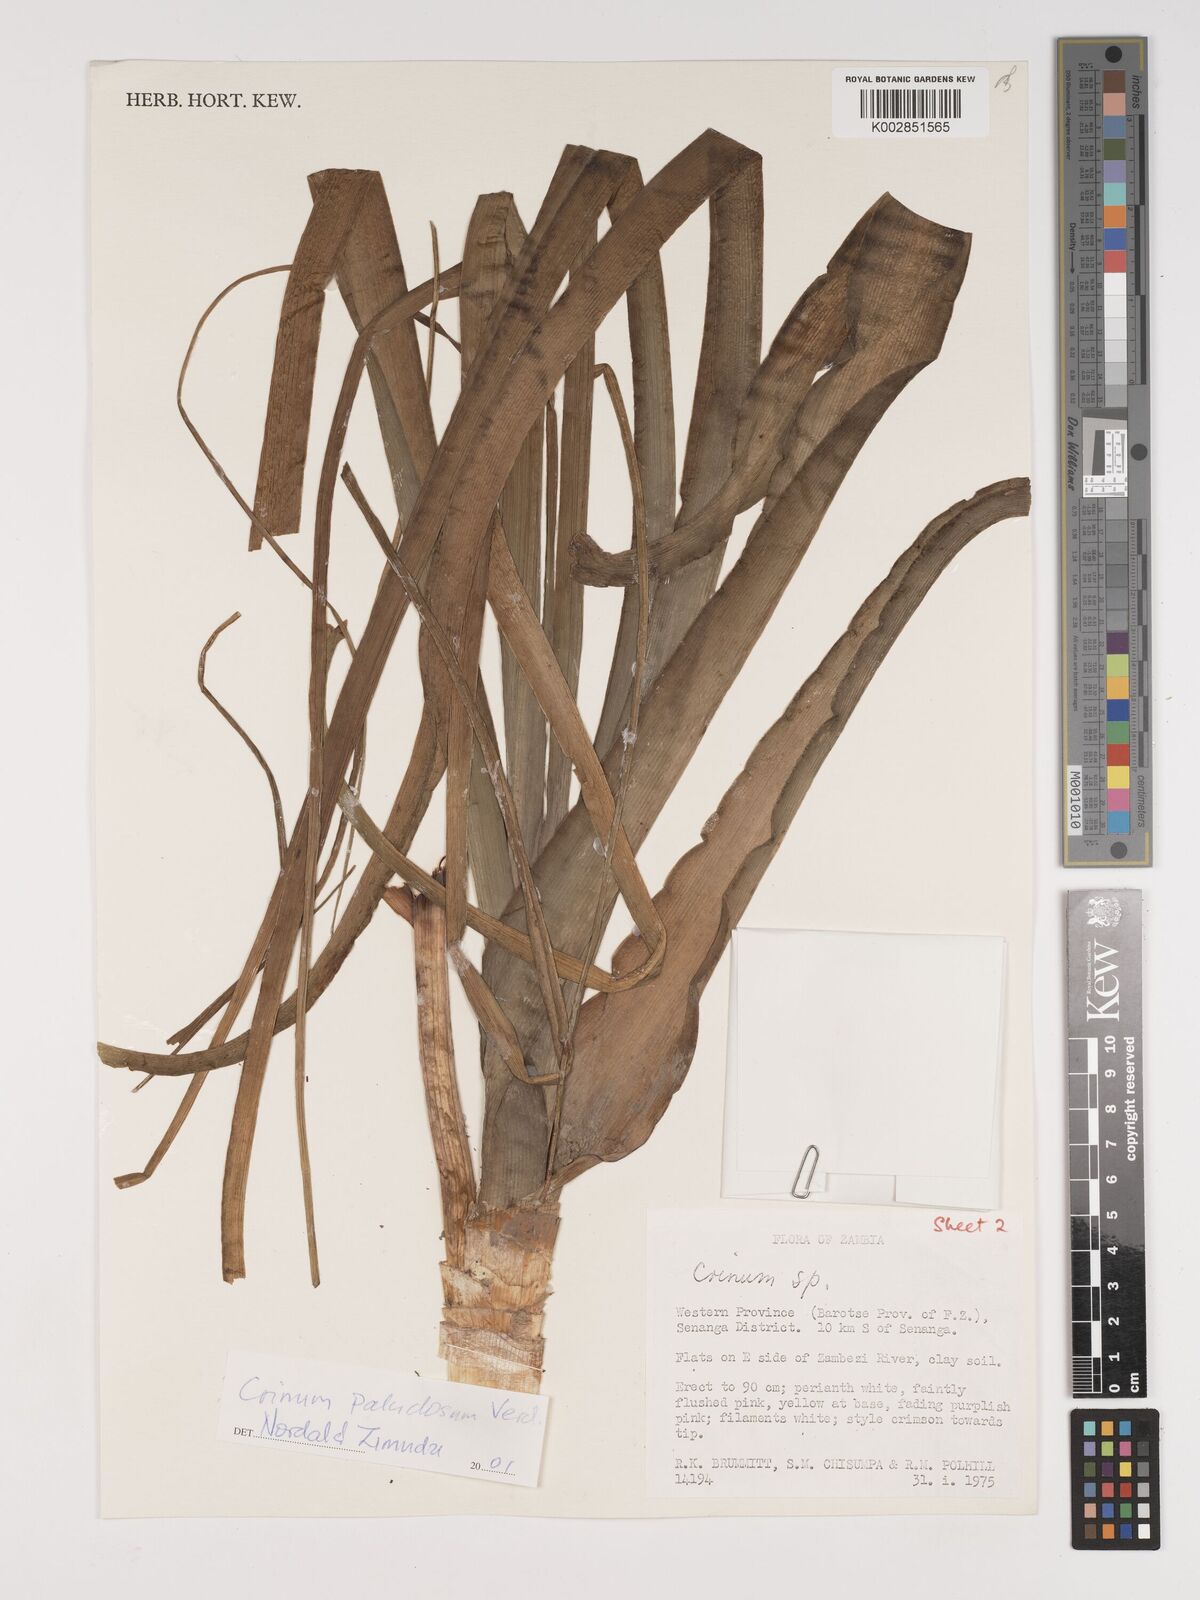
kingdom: Plantae
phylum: Tracheophyta
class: Liliopsida
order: Asparagales
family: Amaryllidaceae
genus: Crinum
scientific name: Crinum paludosum
